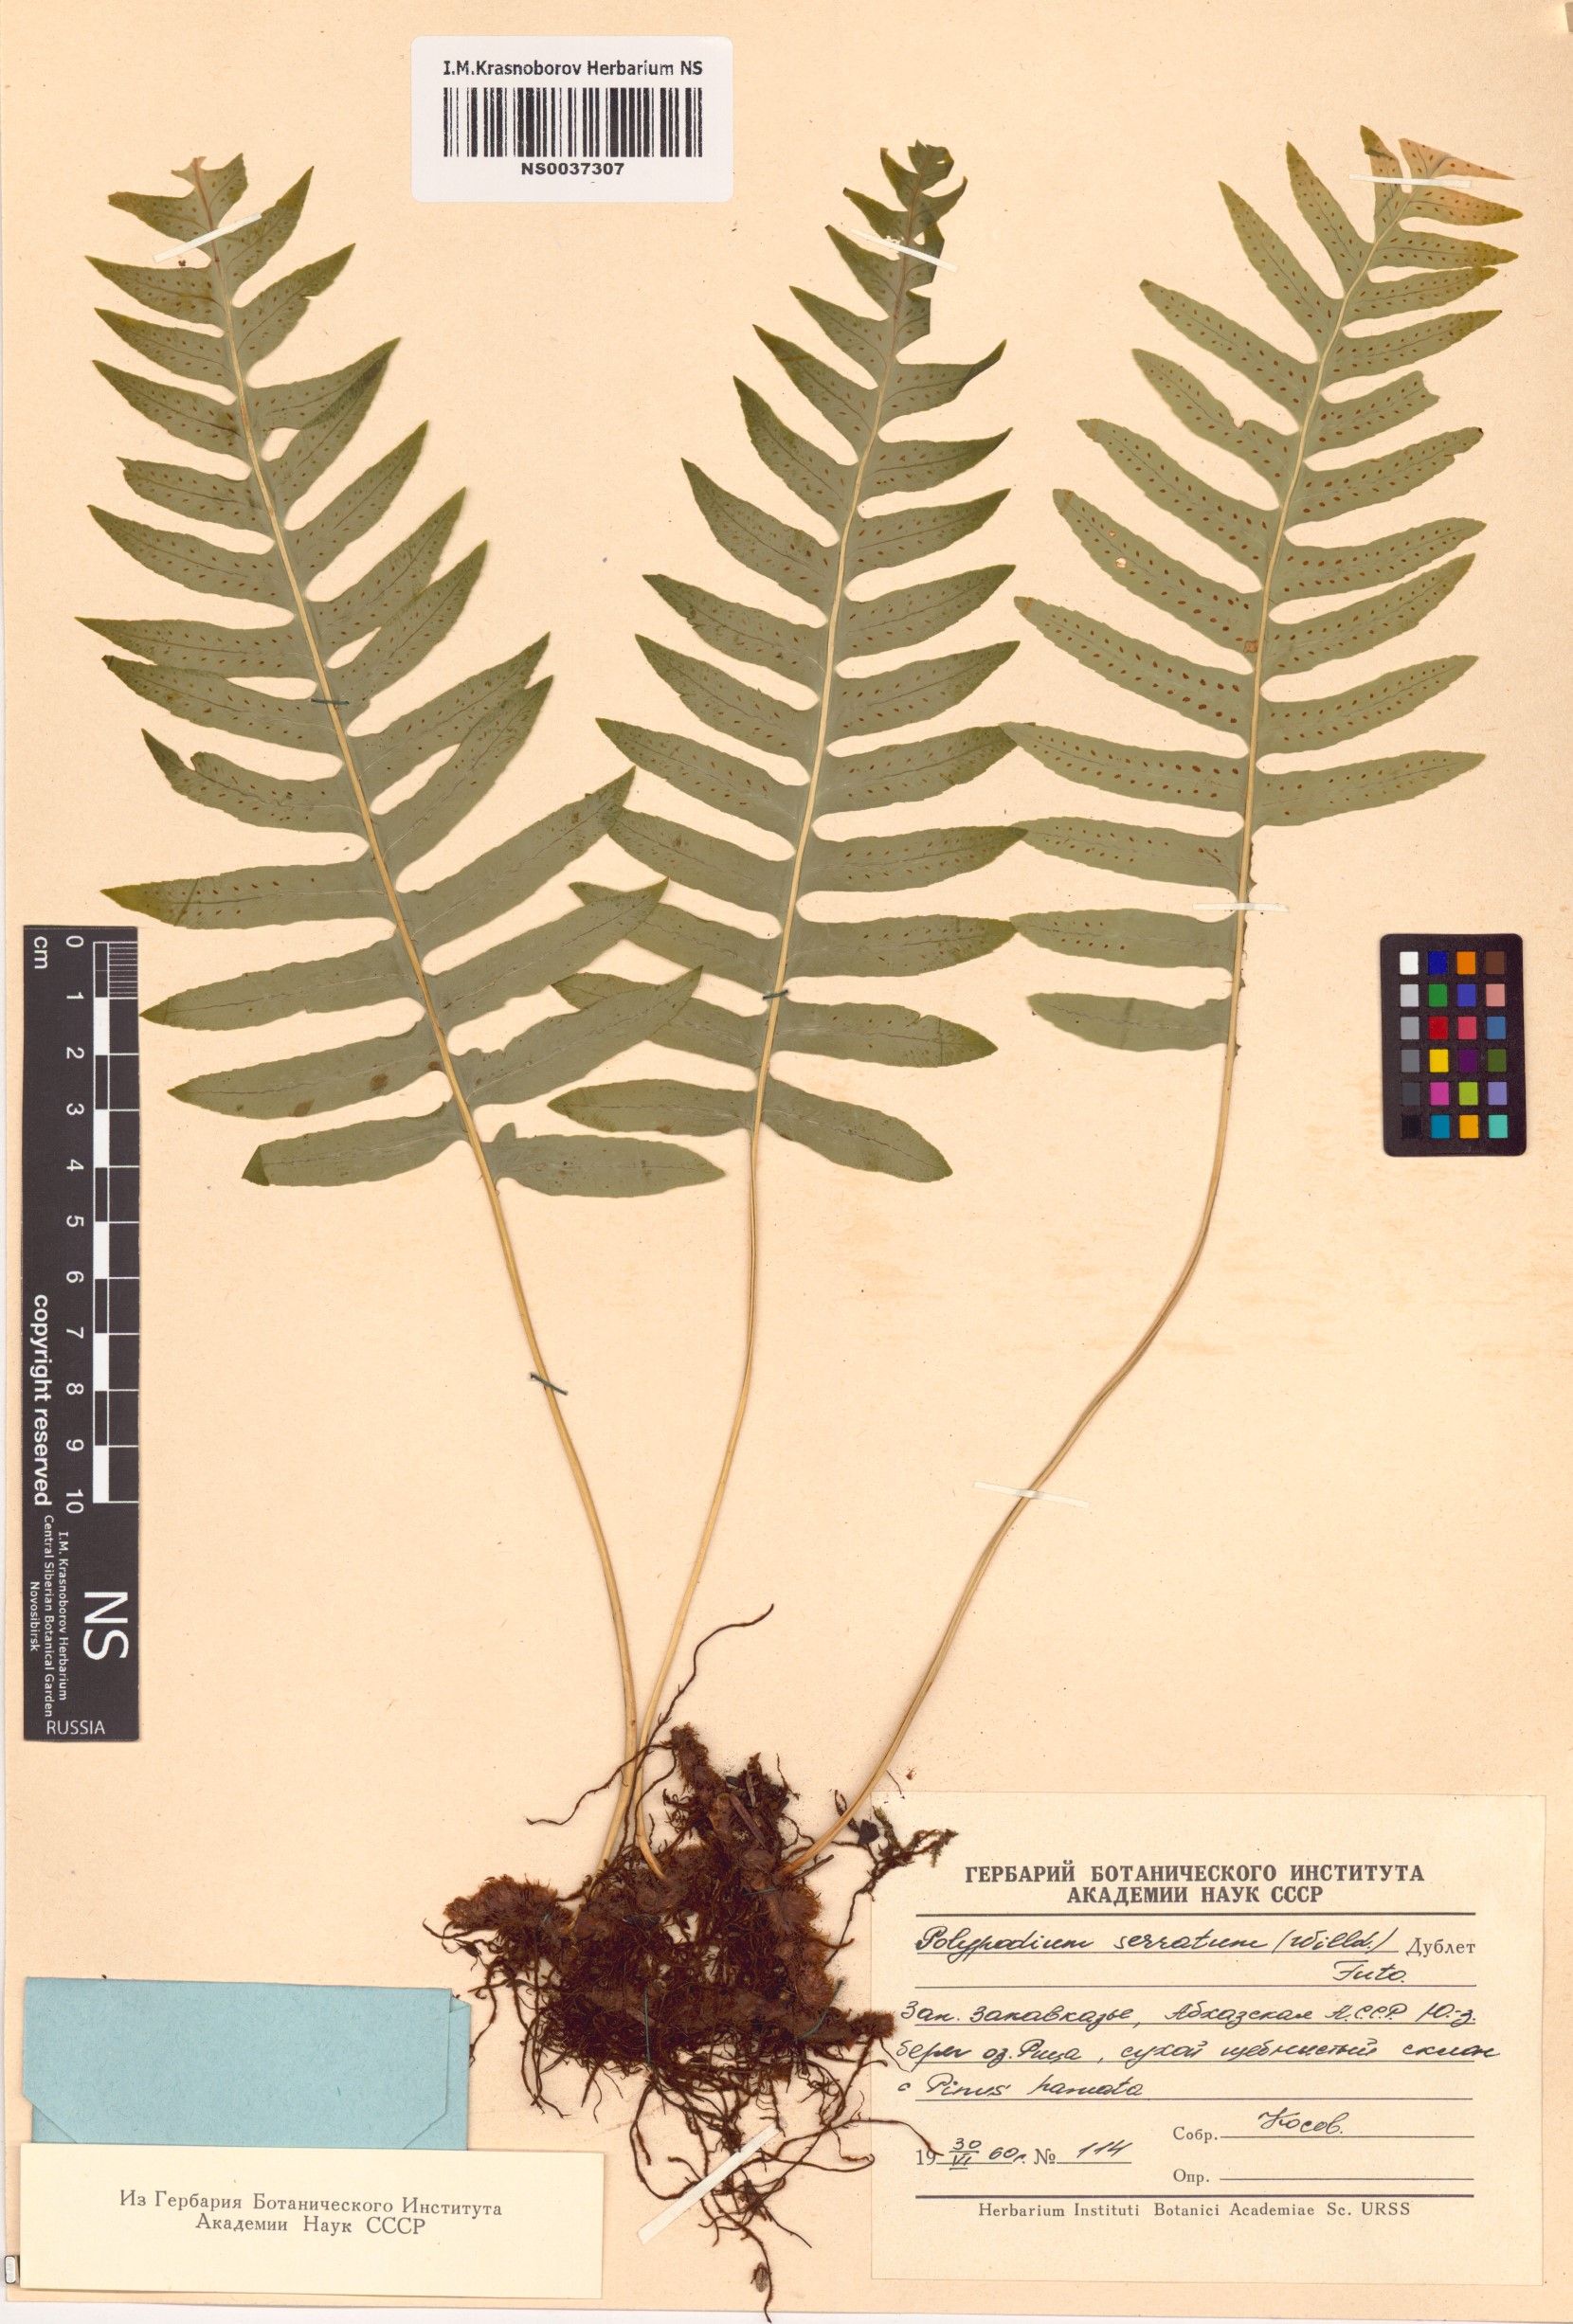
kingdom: Plantae
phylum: Tracheophyta
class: Polypodiopsida
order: Polypodiales
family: Polypodiaceae
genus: Polypodium
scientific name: Polypodium cambricum
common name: Southern polypody
